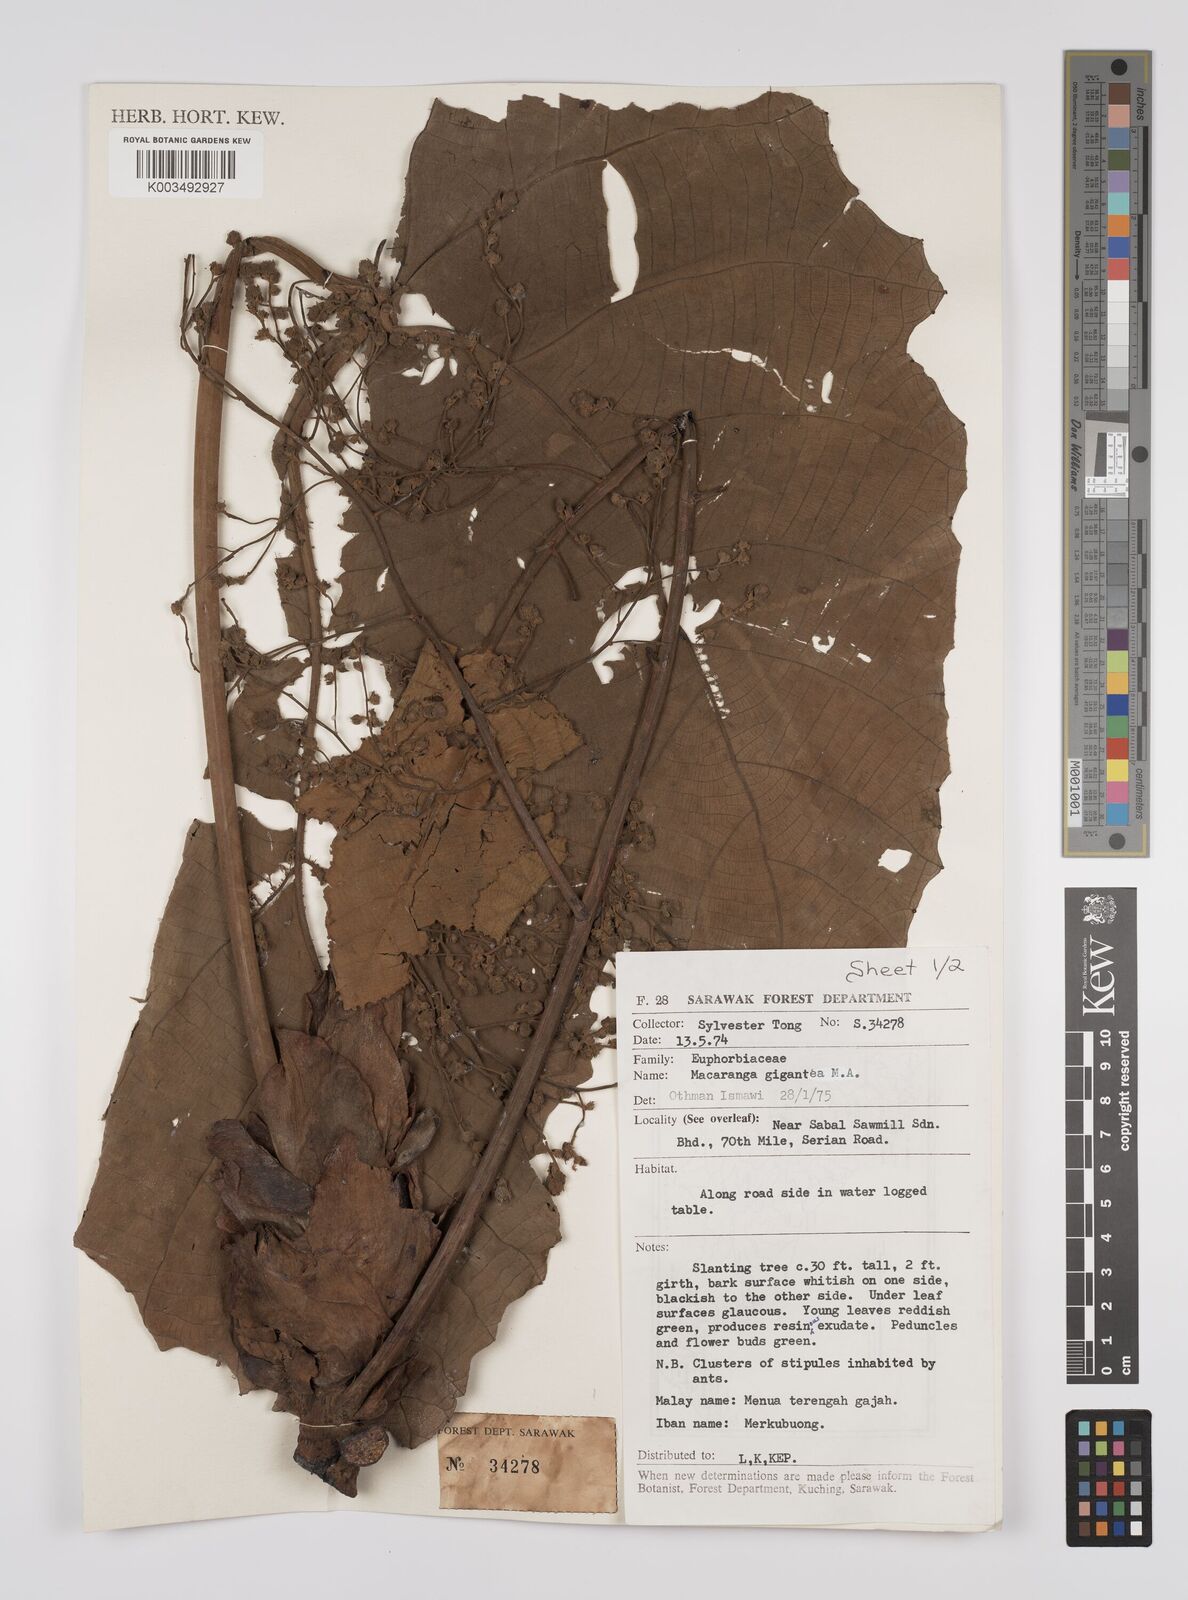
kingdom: Plantae
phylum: Tracheophyta
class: Magnoliopsida
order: Malpighiales
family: Euphorbiaceae
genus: Macaranga
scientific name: Macaranga gigantea
